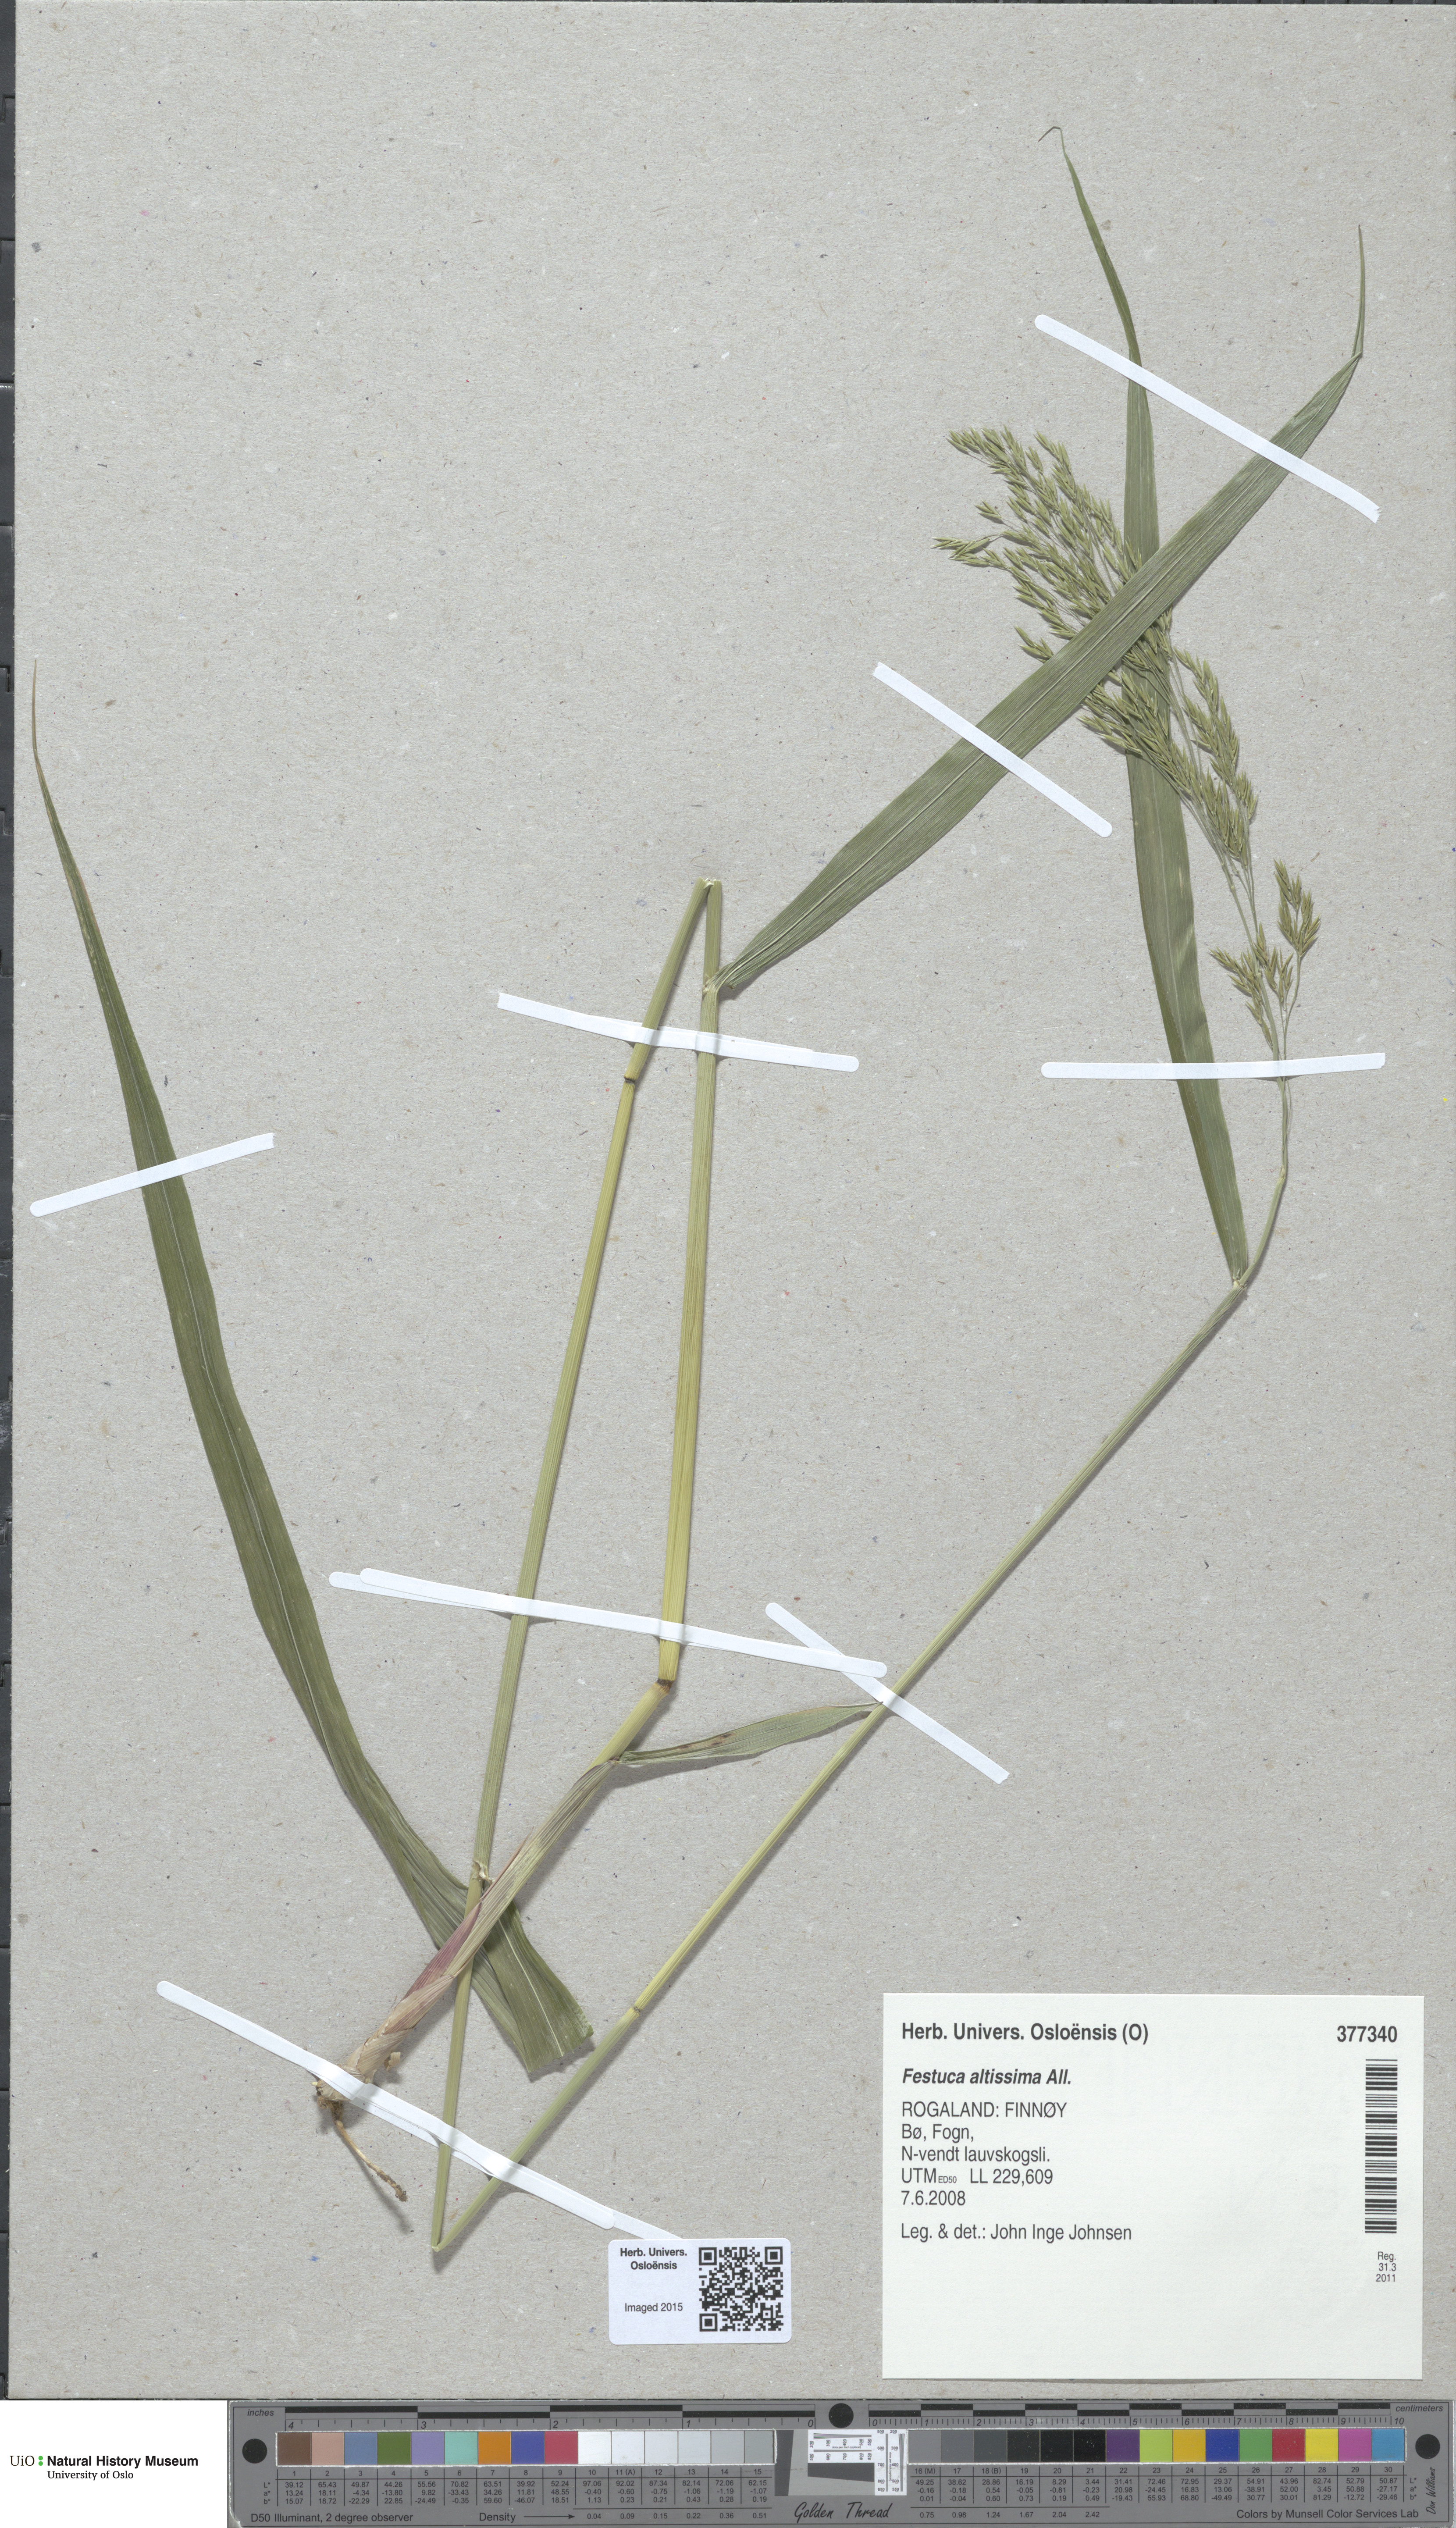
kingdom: Plantae
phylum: Tracheophyta
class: Liliopsida
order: Poales
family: Poaceae
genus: Festuca
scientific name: Festuca altissima
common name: Wood fescue
